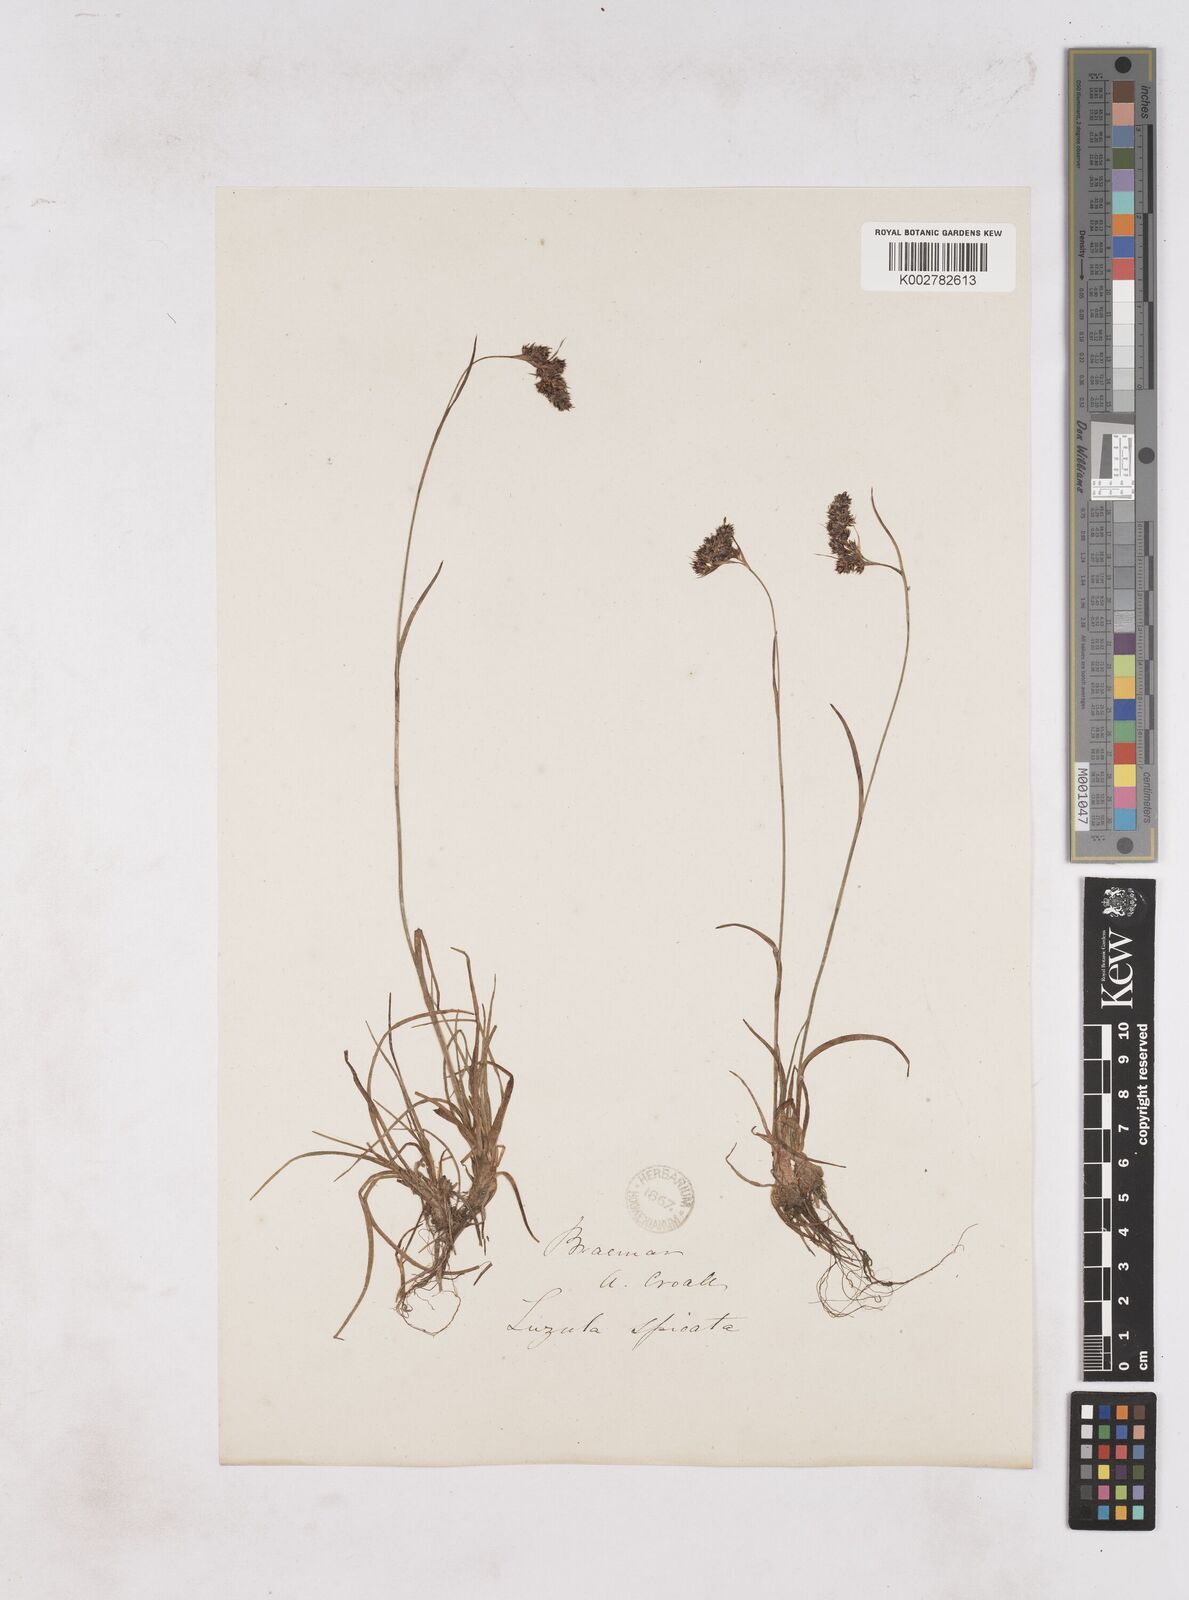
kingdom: Plantae
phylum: Tracheophyta
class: Liliopsida
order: Poales
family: Juncaceae
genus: Luzula
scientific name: Luzula spicata
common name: Spiked wood-rush
